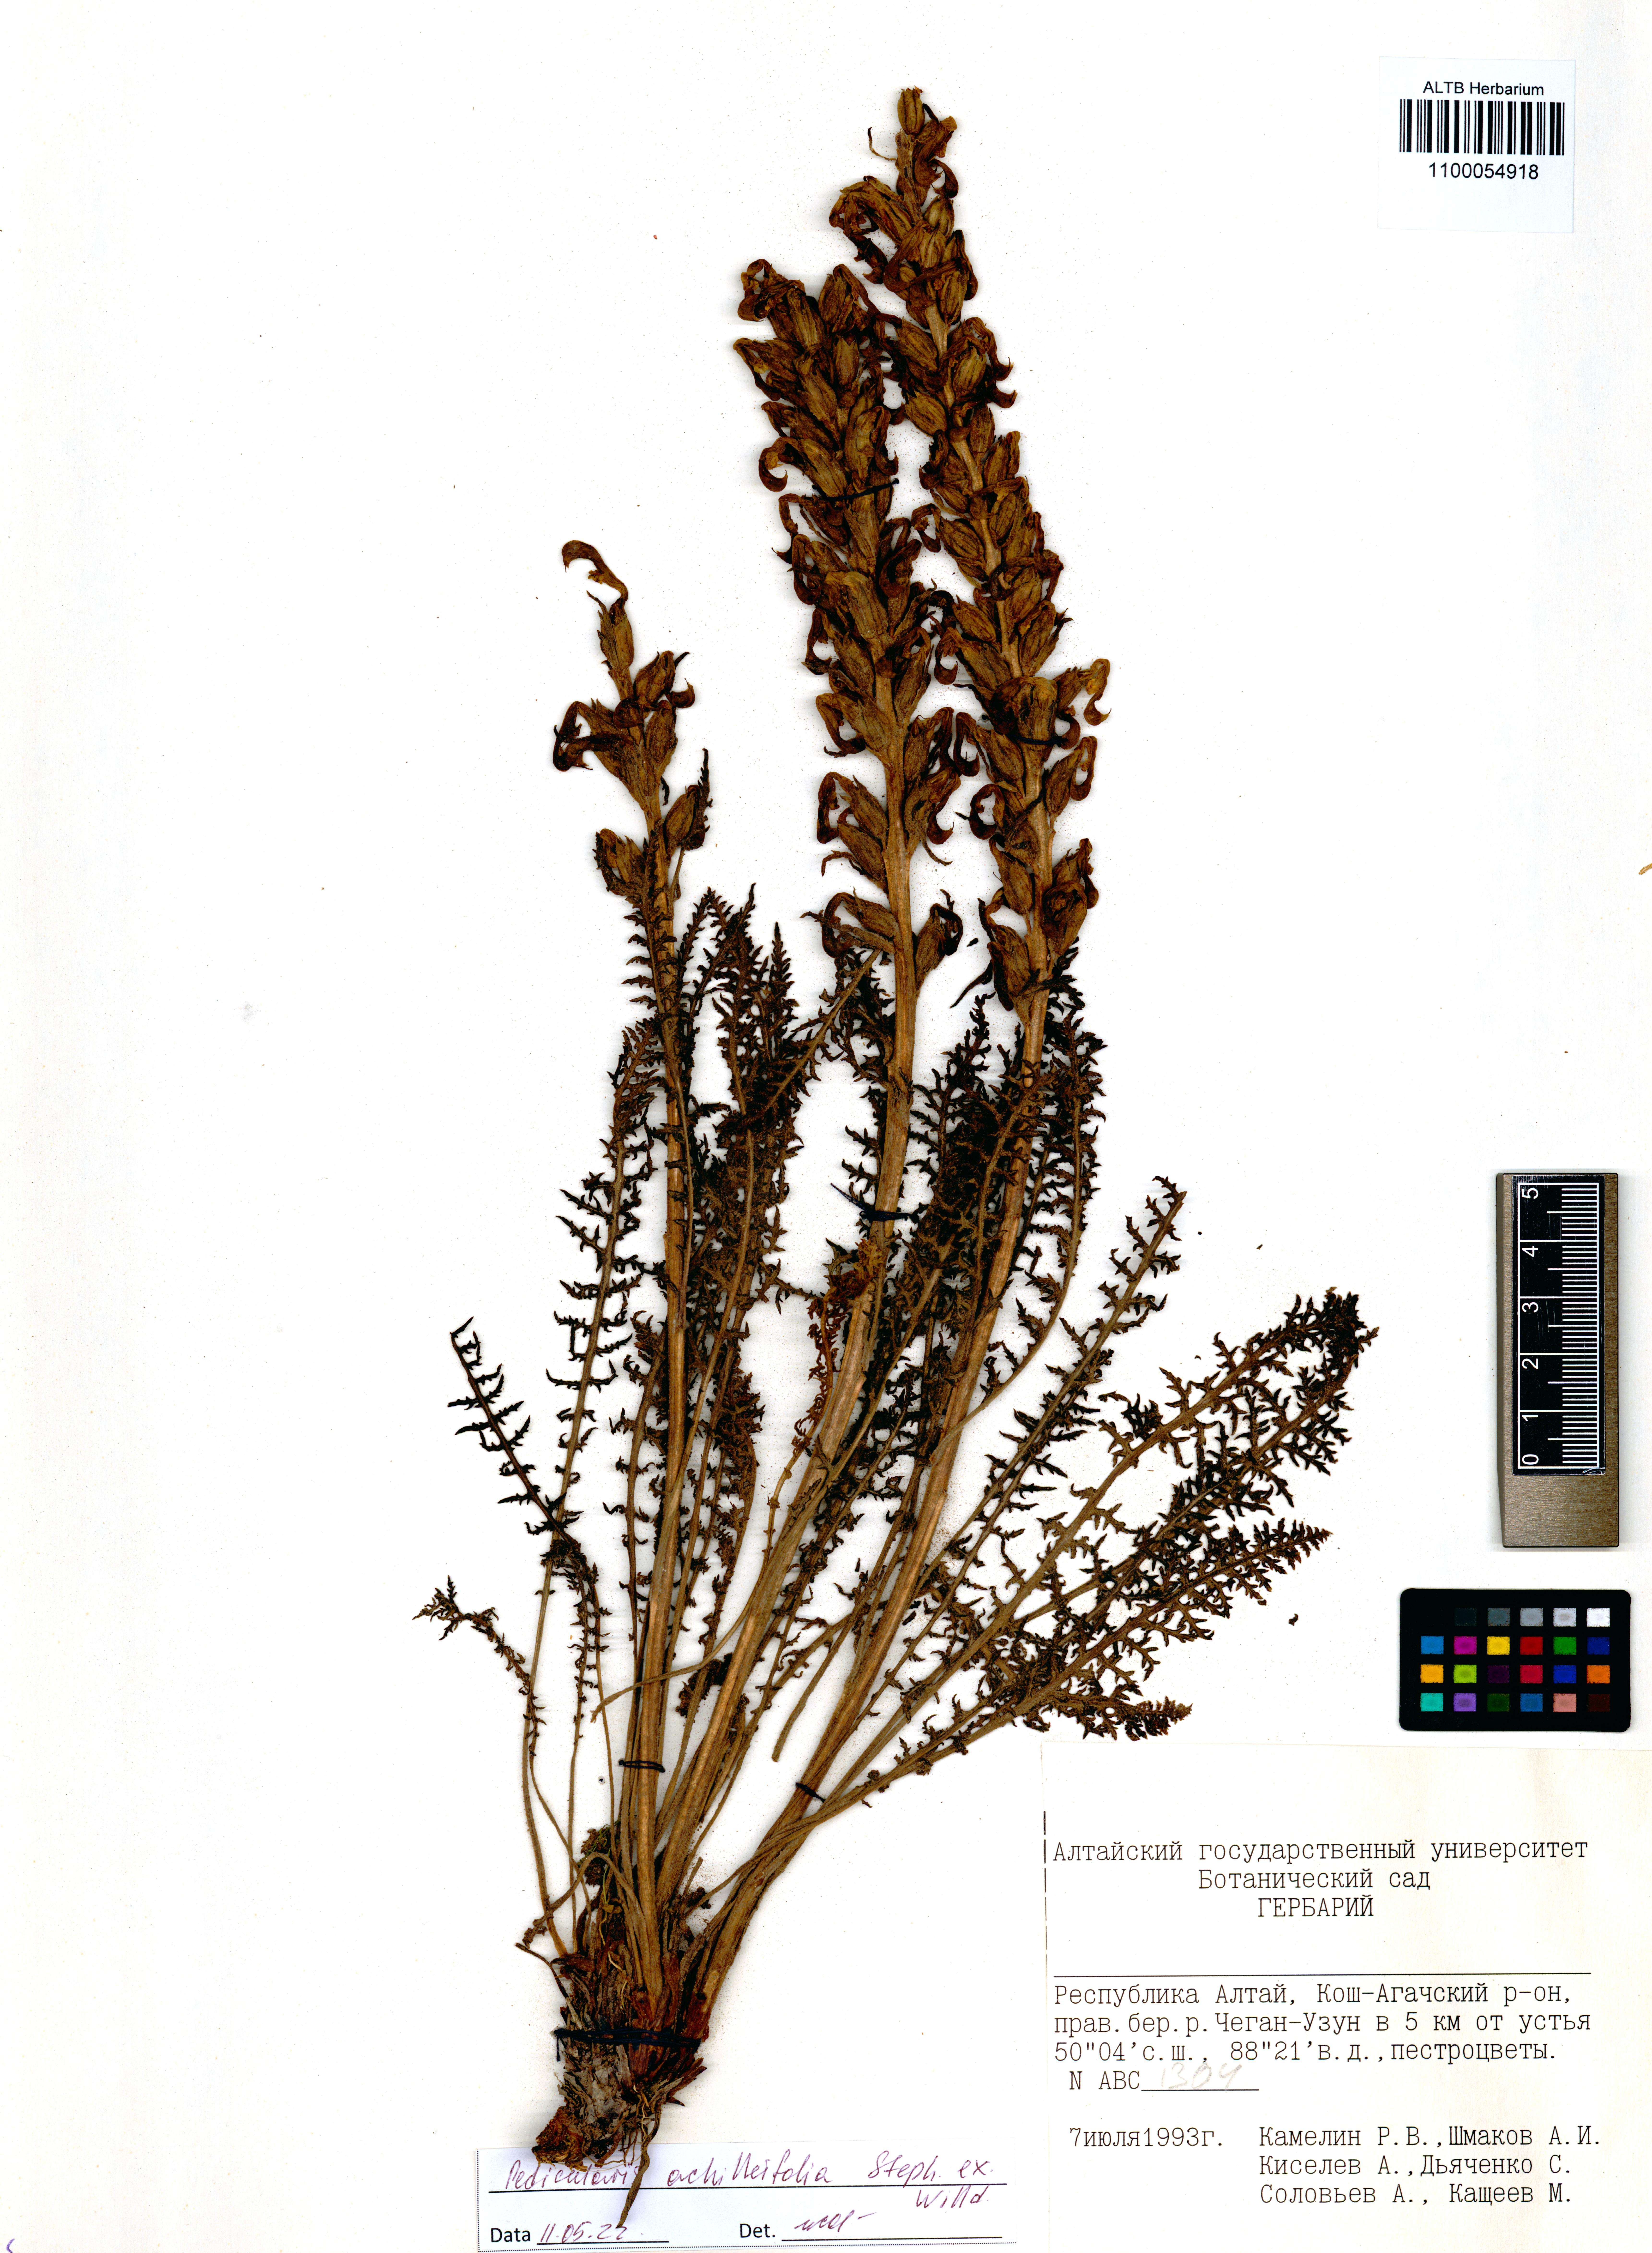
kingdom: Plantae
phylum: Tracheophyta
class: Magnoliopsida
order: Lamiales
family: Orobanchaceae
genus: Pedicularis
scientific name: Pedicularis achilleifolia
